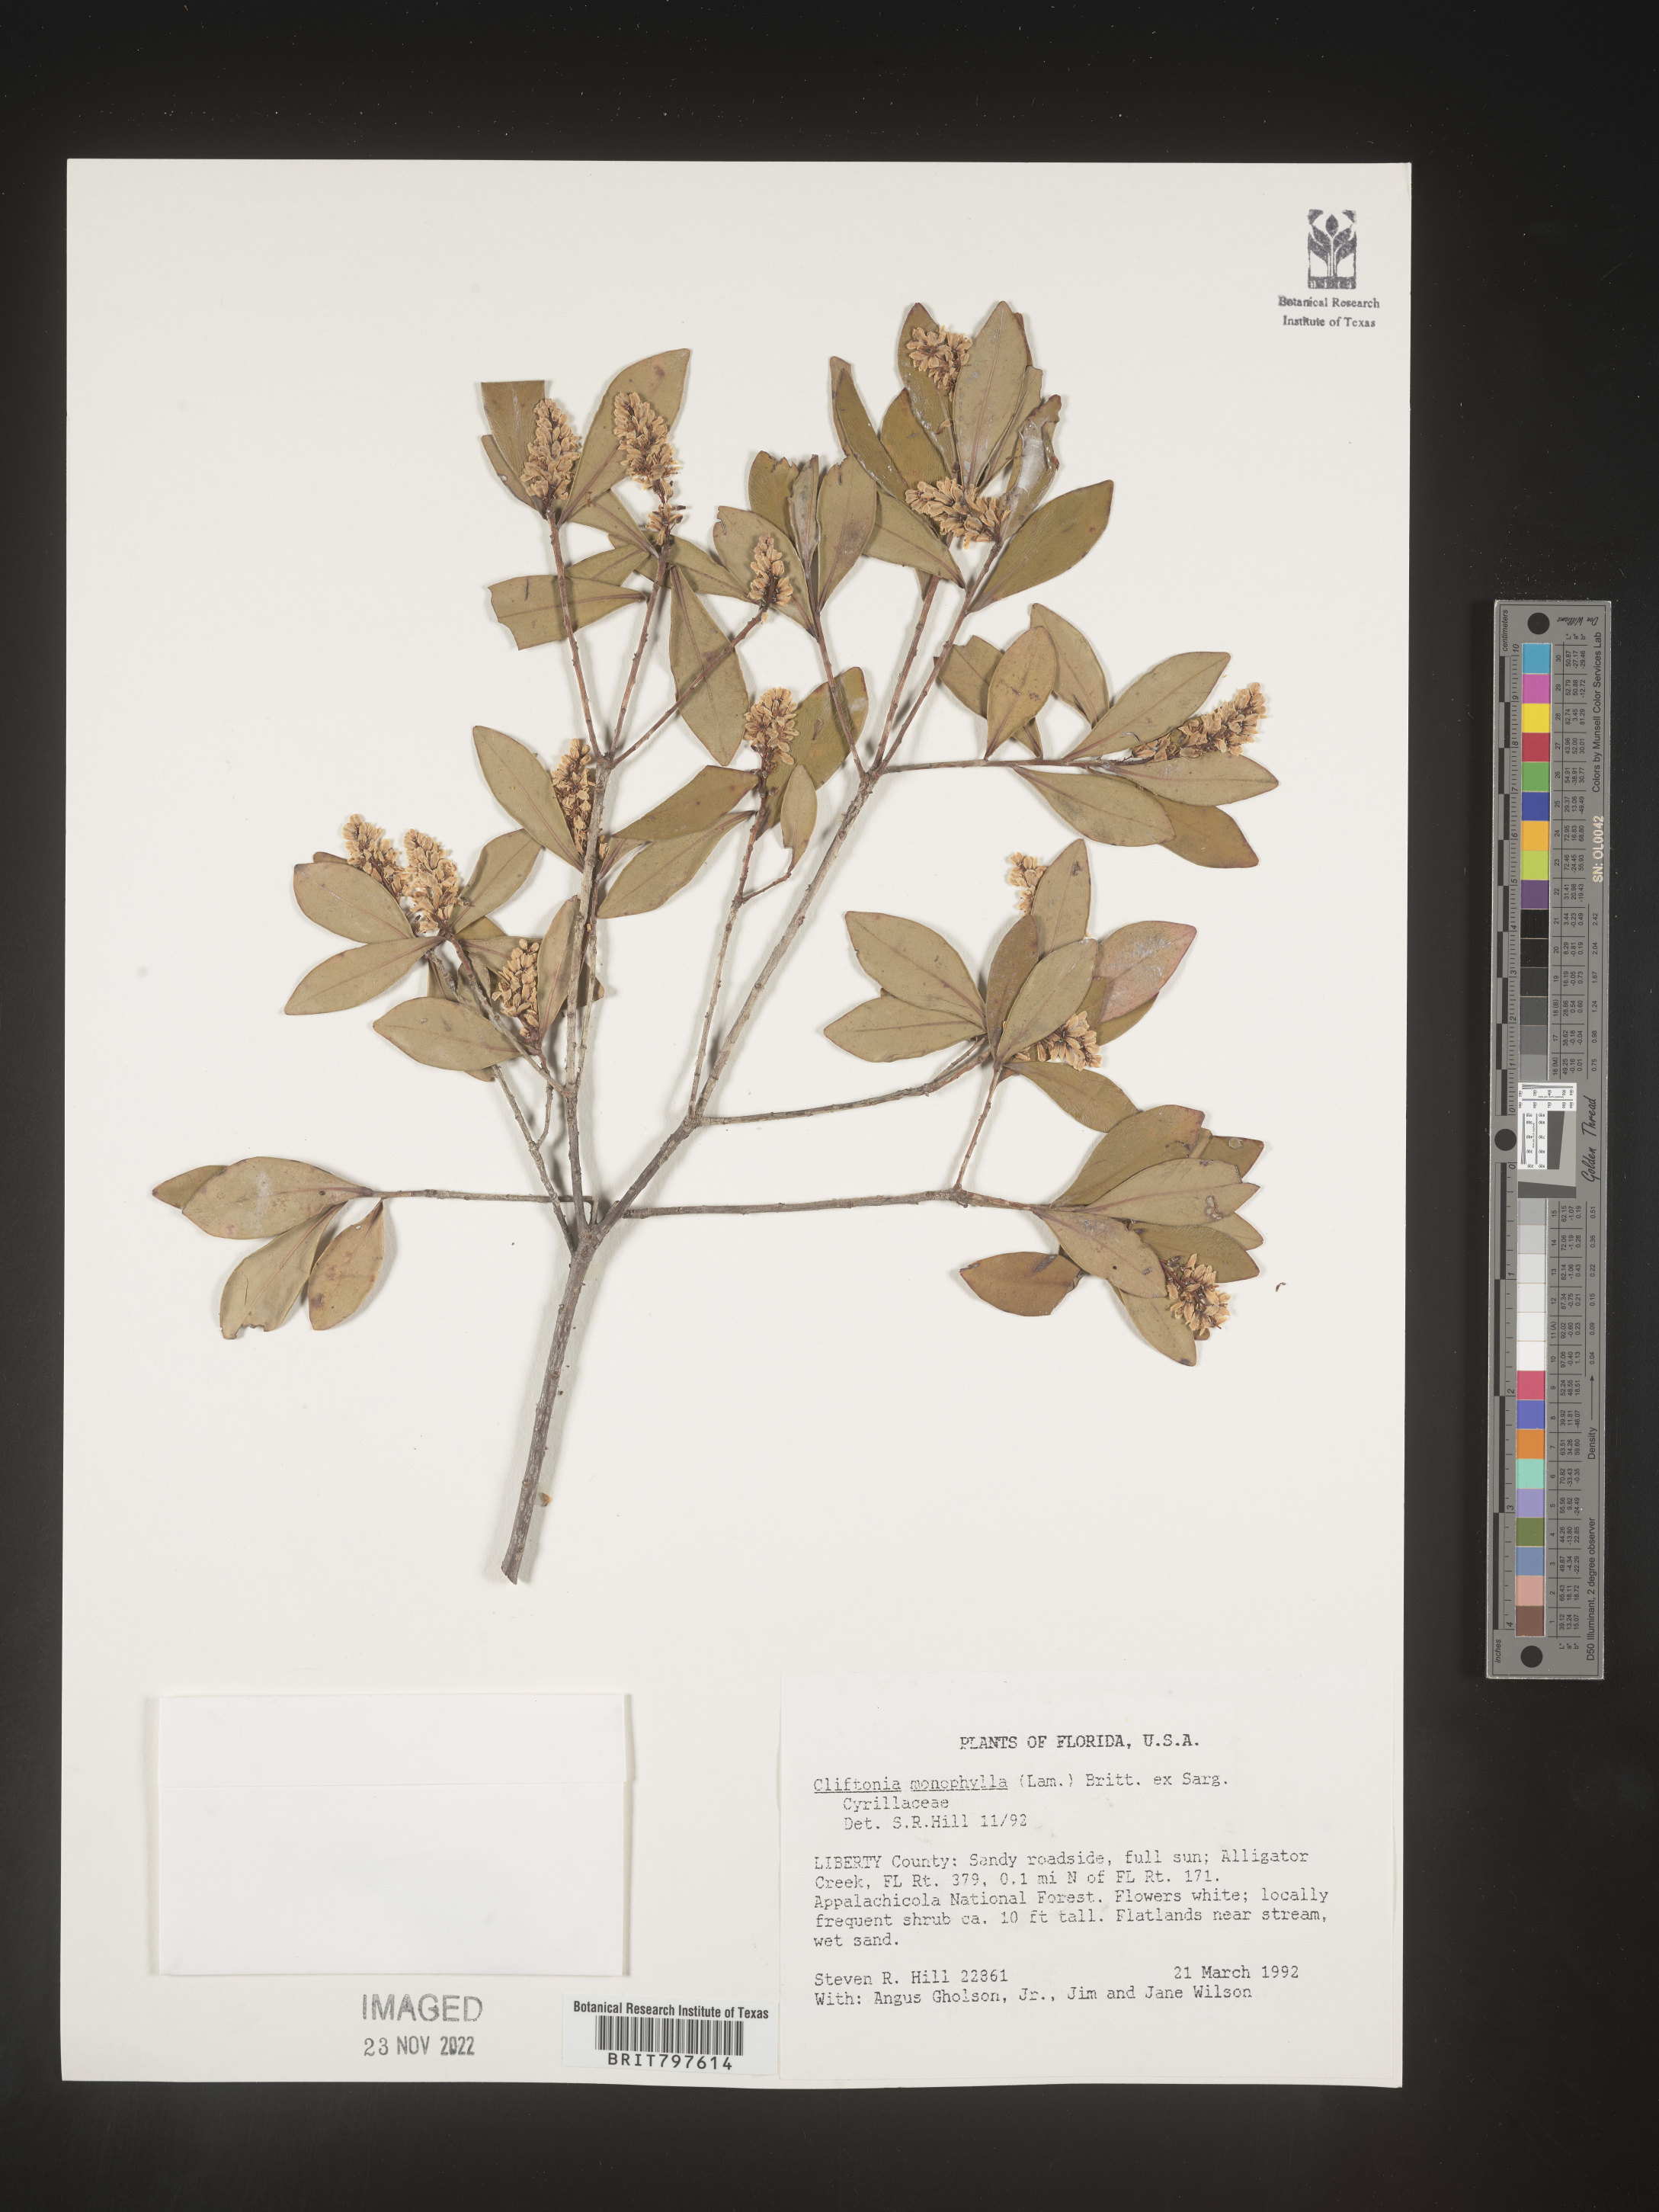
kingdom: Plantae
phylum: Tracheophyta
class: Magnoliopsida
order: Ericales
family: Cyrillaceae
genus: Cliftonia
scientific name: Cliftonia monophylla
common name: Titi
